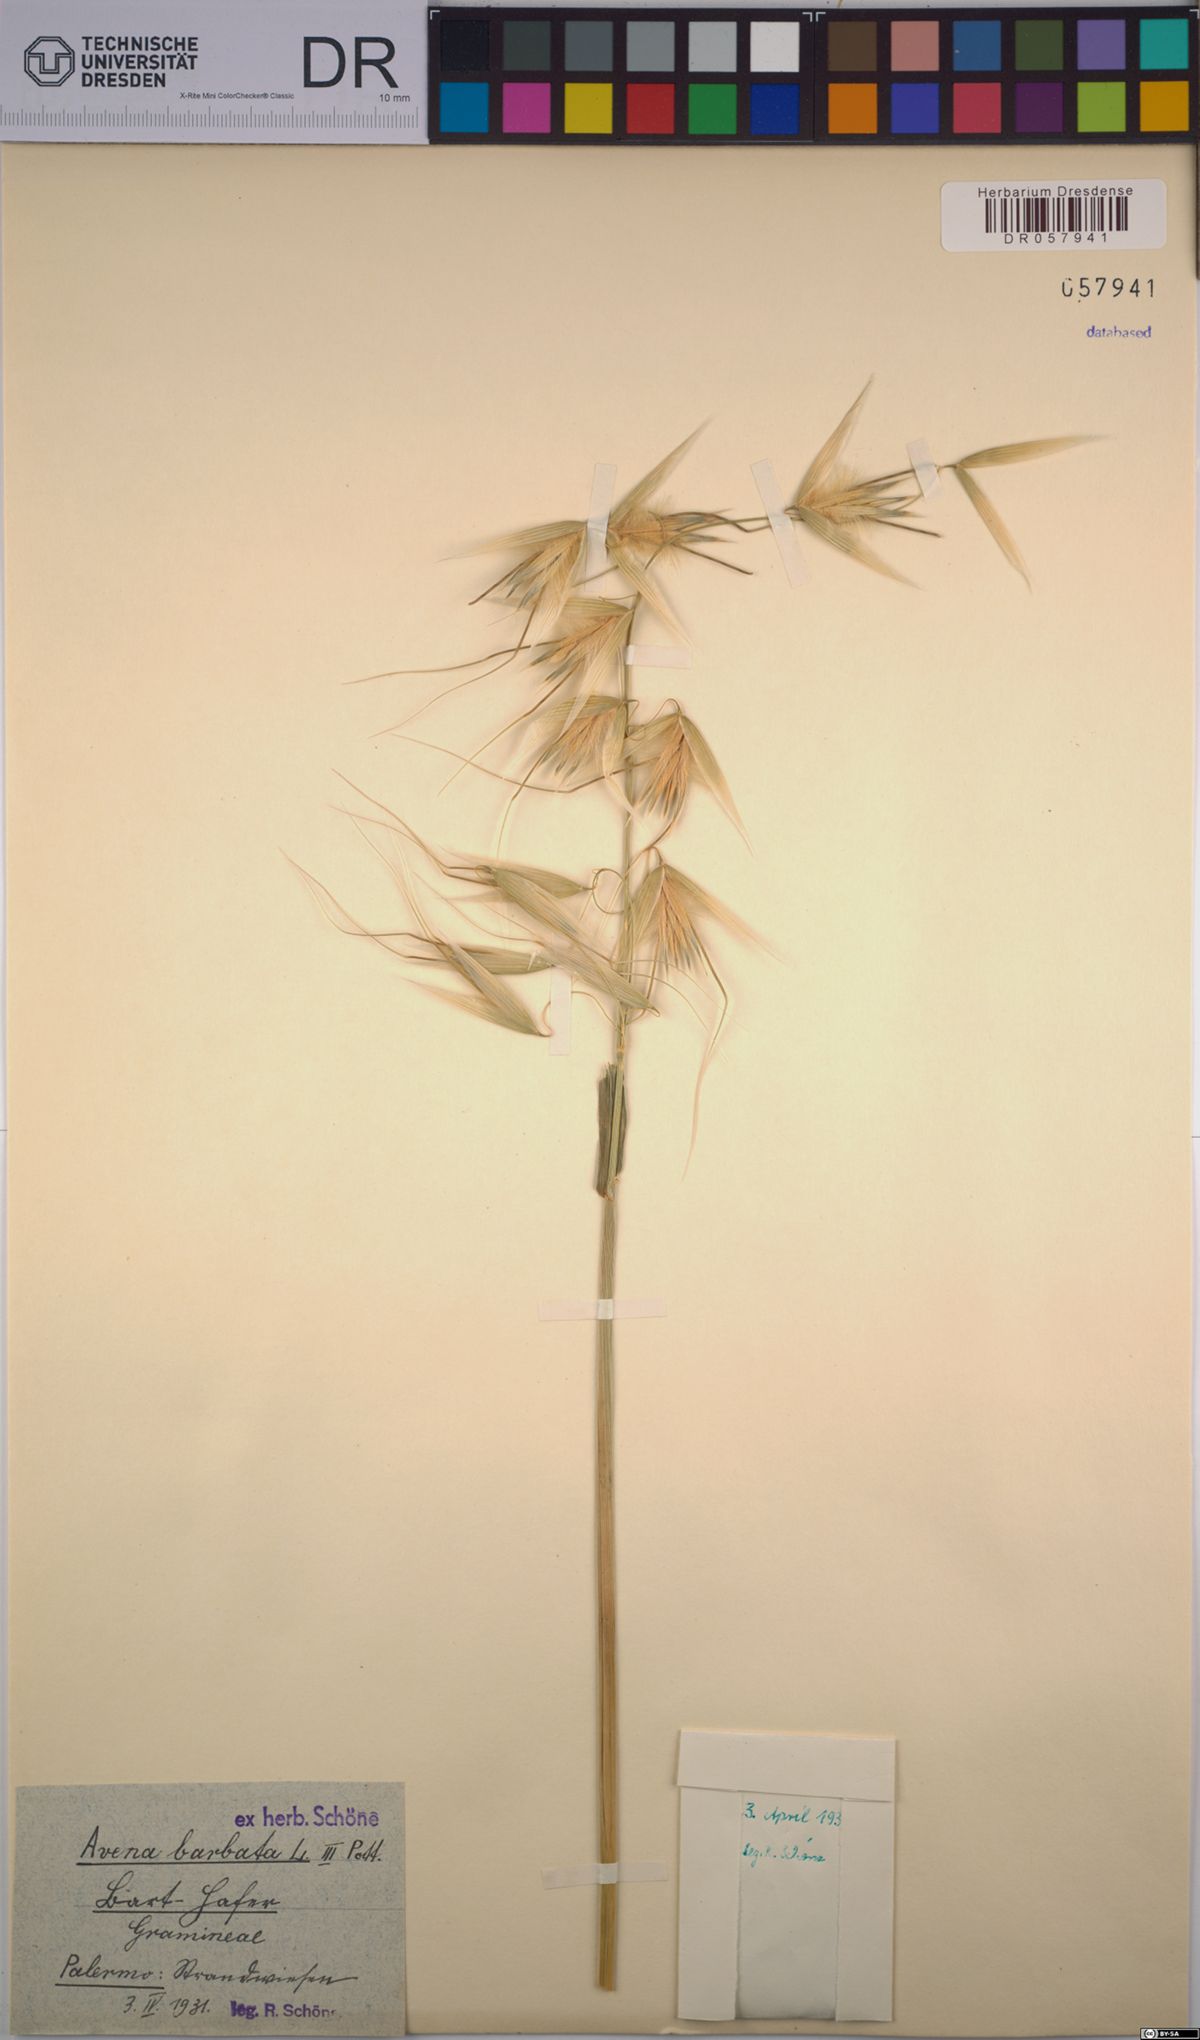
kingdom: Plantae
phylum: Tracheophyta
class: Liliopsida
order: Poales
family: Poaceae
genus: Avena
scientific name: Avena barbata
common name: Slender oat
